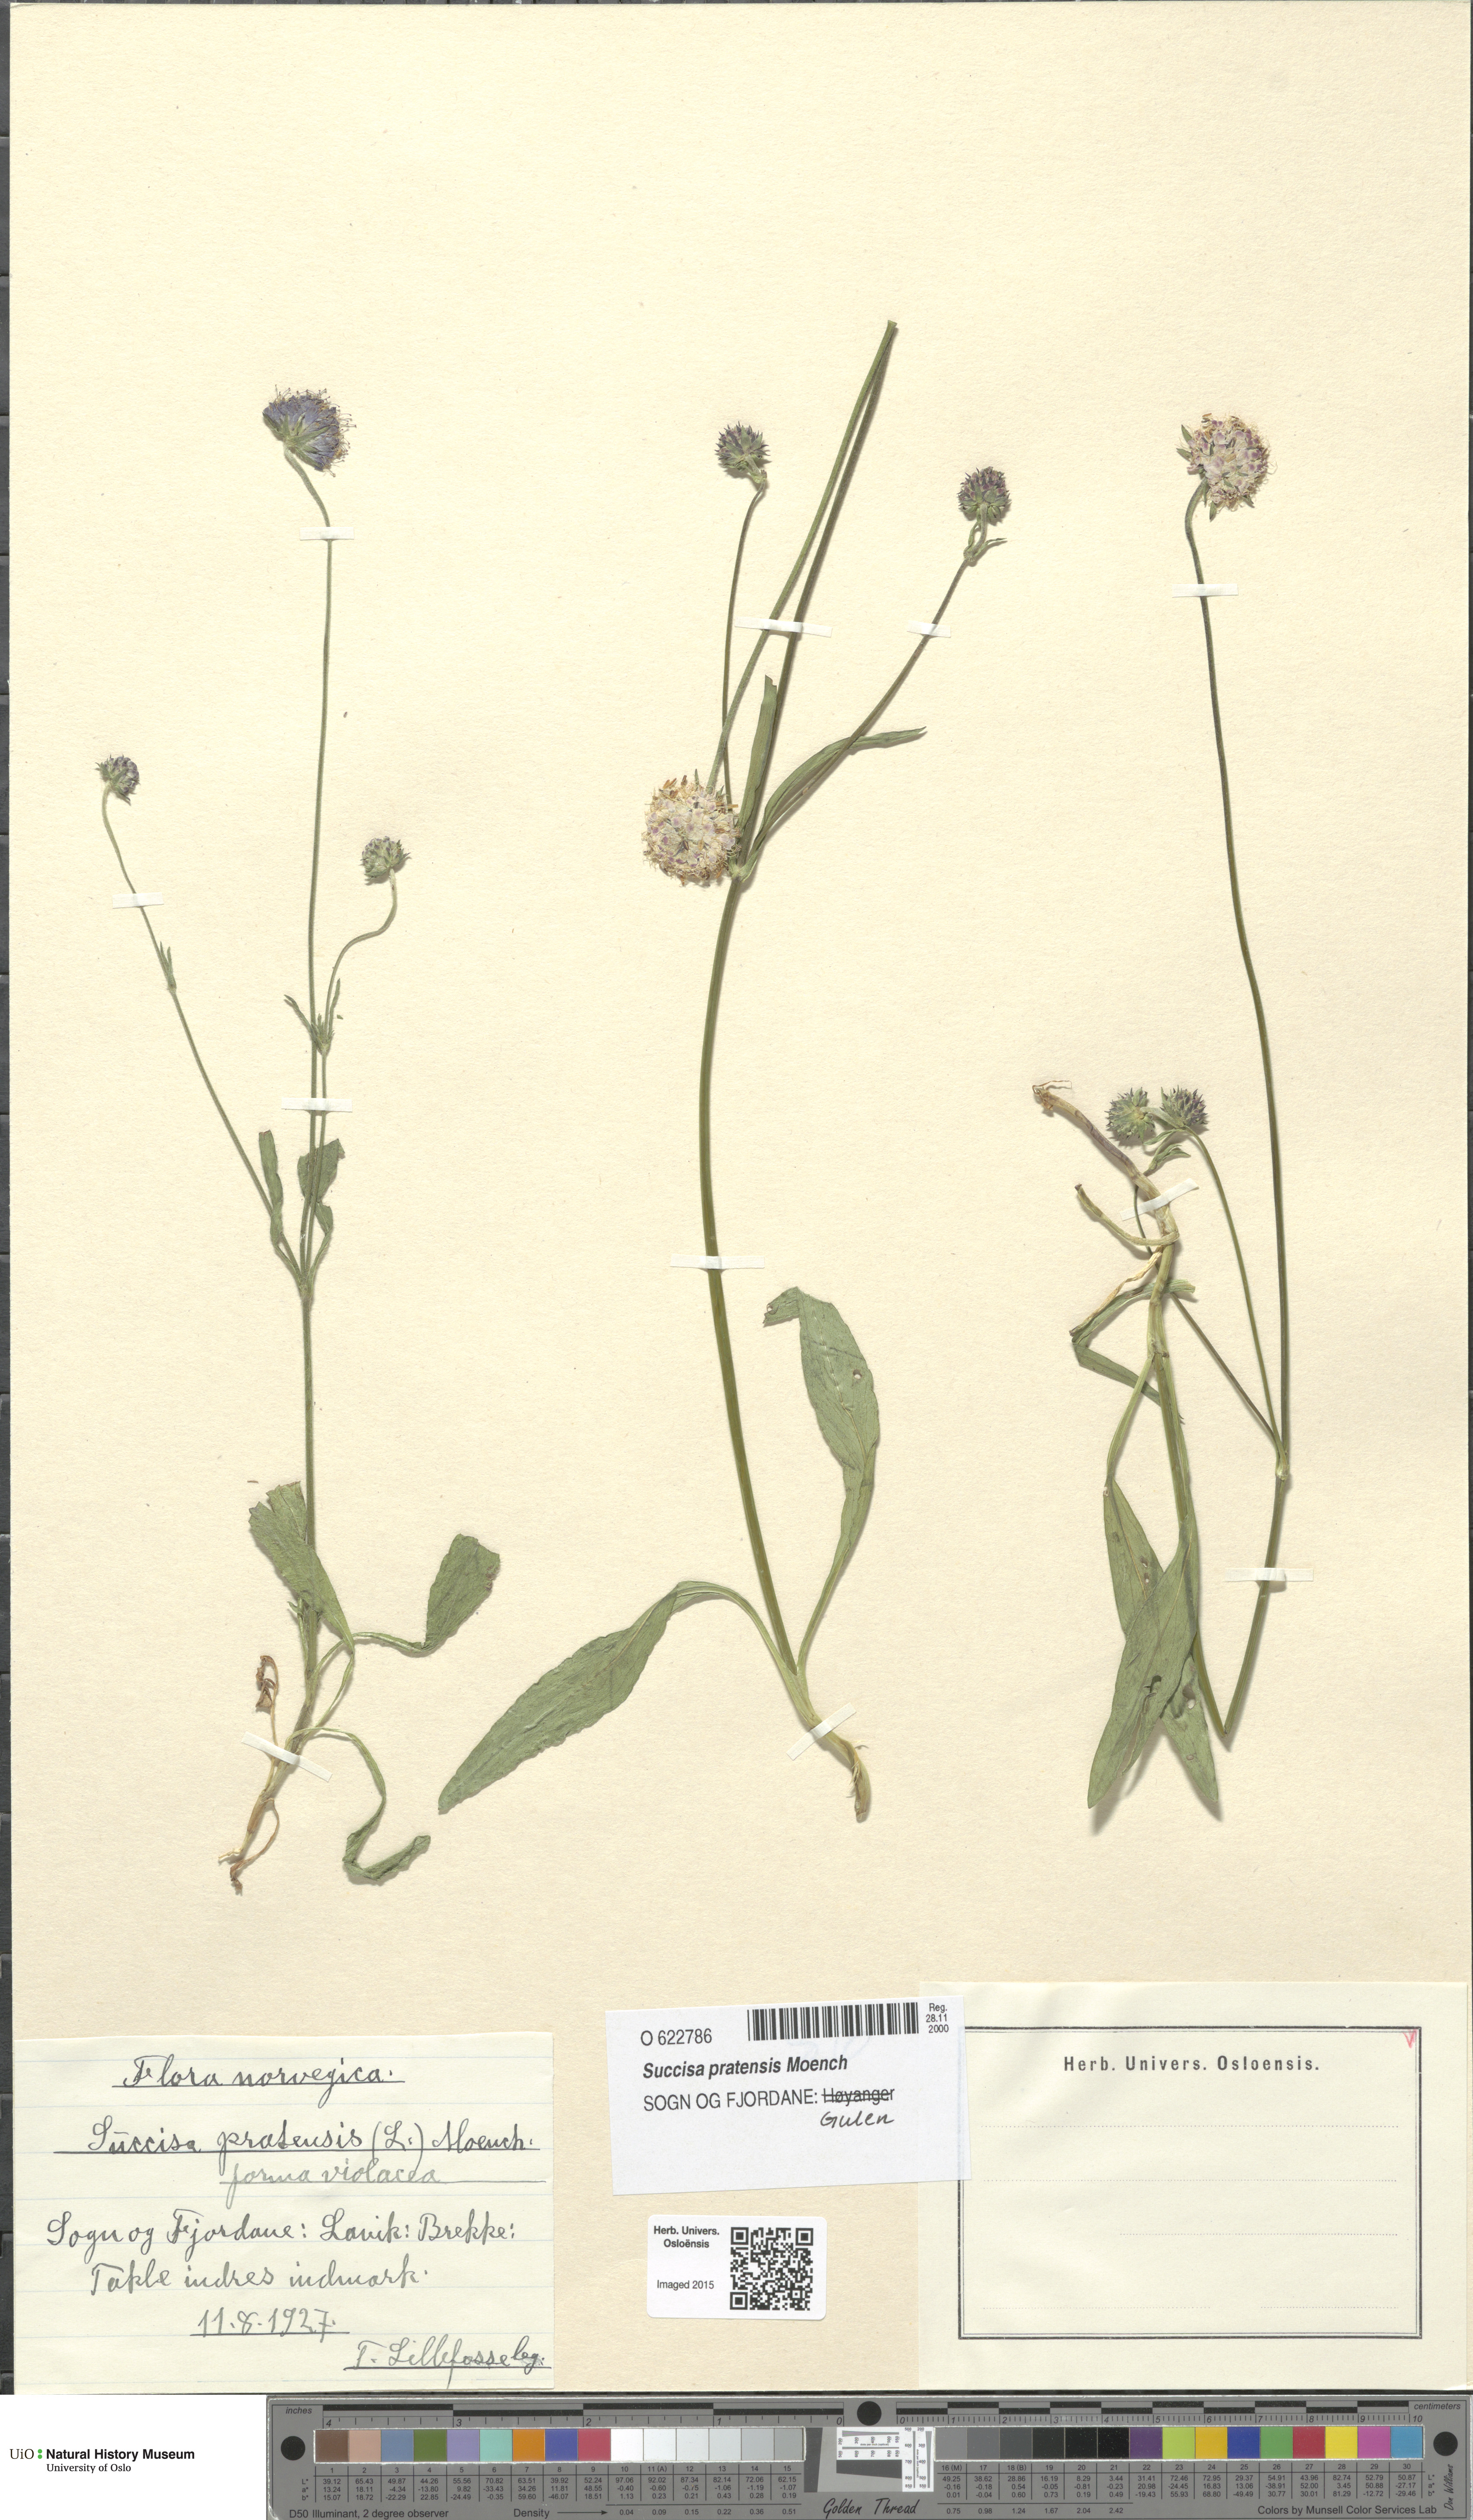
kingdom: Plantae
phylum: Tracheophyta
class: Magnoliopsida
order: Dipsacales
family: Caprifoliaceae
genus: Succisa
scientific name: Succisa pratensis
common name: Devil's-bit
